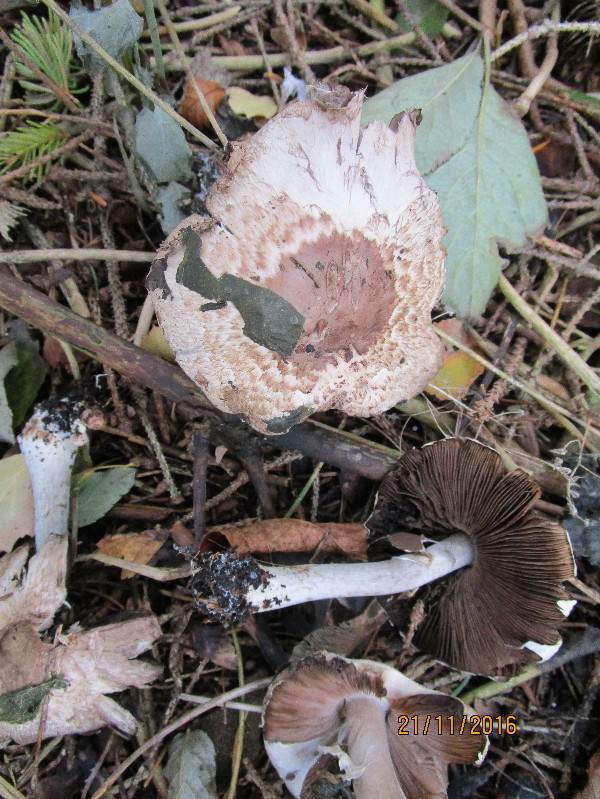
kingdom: Fungi
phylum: Basidiomycota
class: Agaricomycetes
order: Agaricales
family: Agaricaceae
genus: Agaricus
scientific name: Agaricus impudicus
